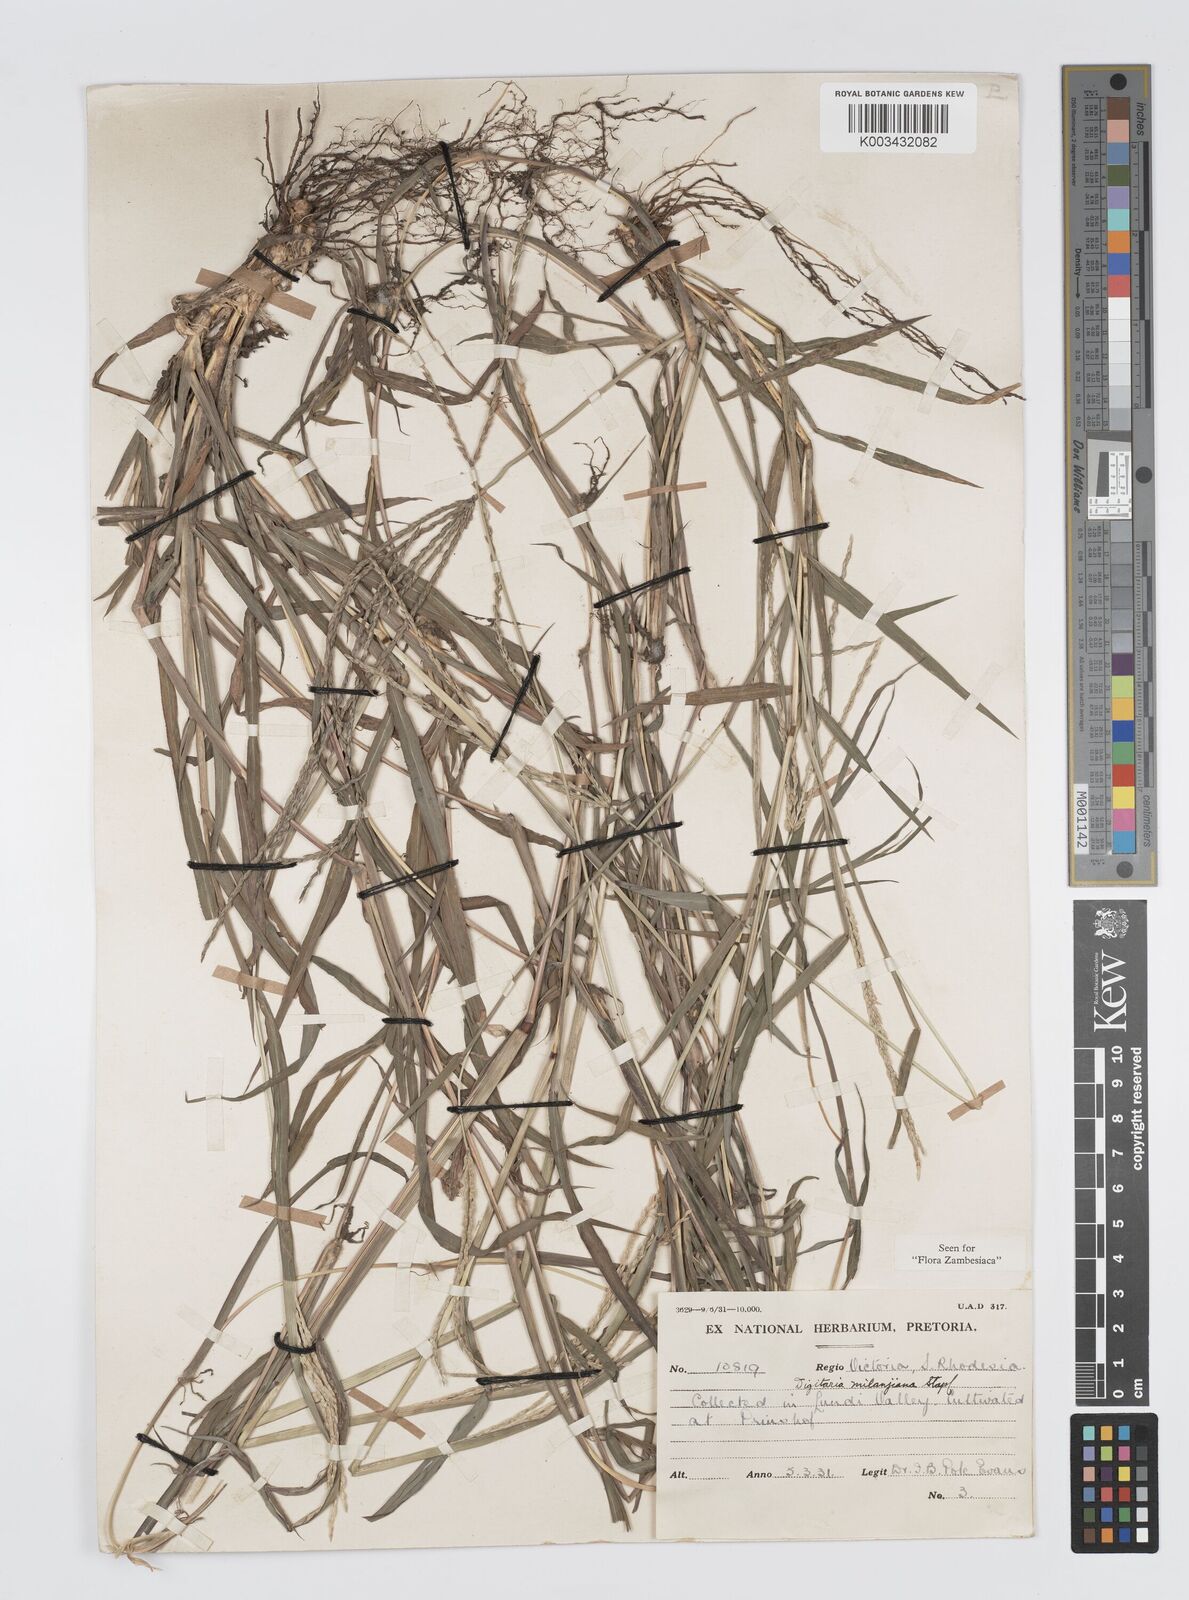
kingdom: Plantae
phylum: Tracheophyta
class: Liliopsida
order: Poales
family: Poaceae
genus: Digitaria
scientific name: Digitaria milanjiana
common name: Madagascar crabgrass
